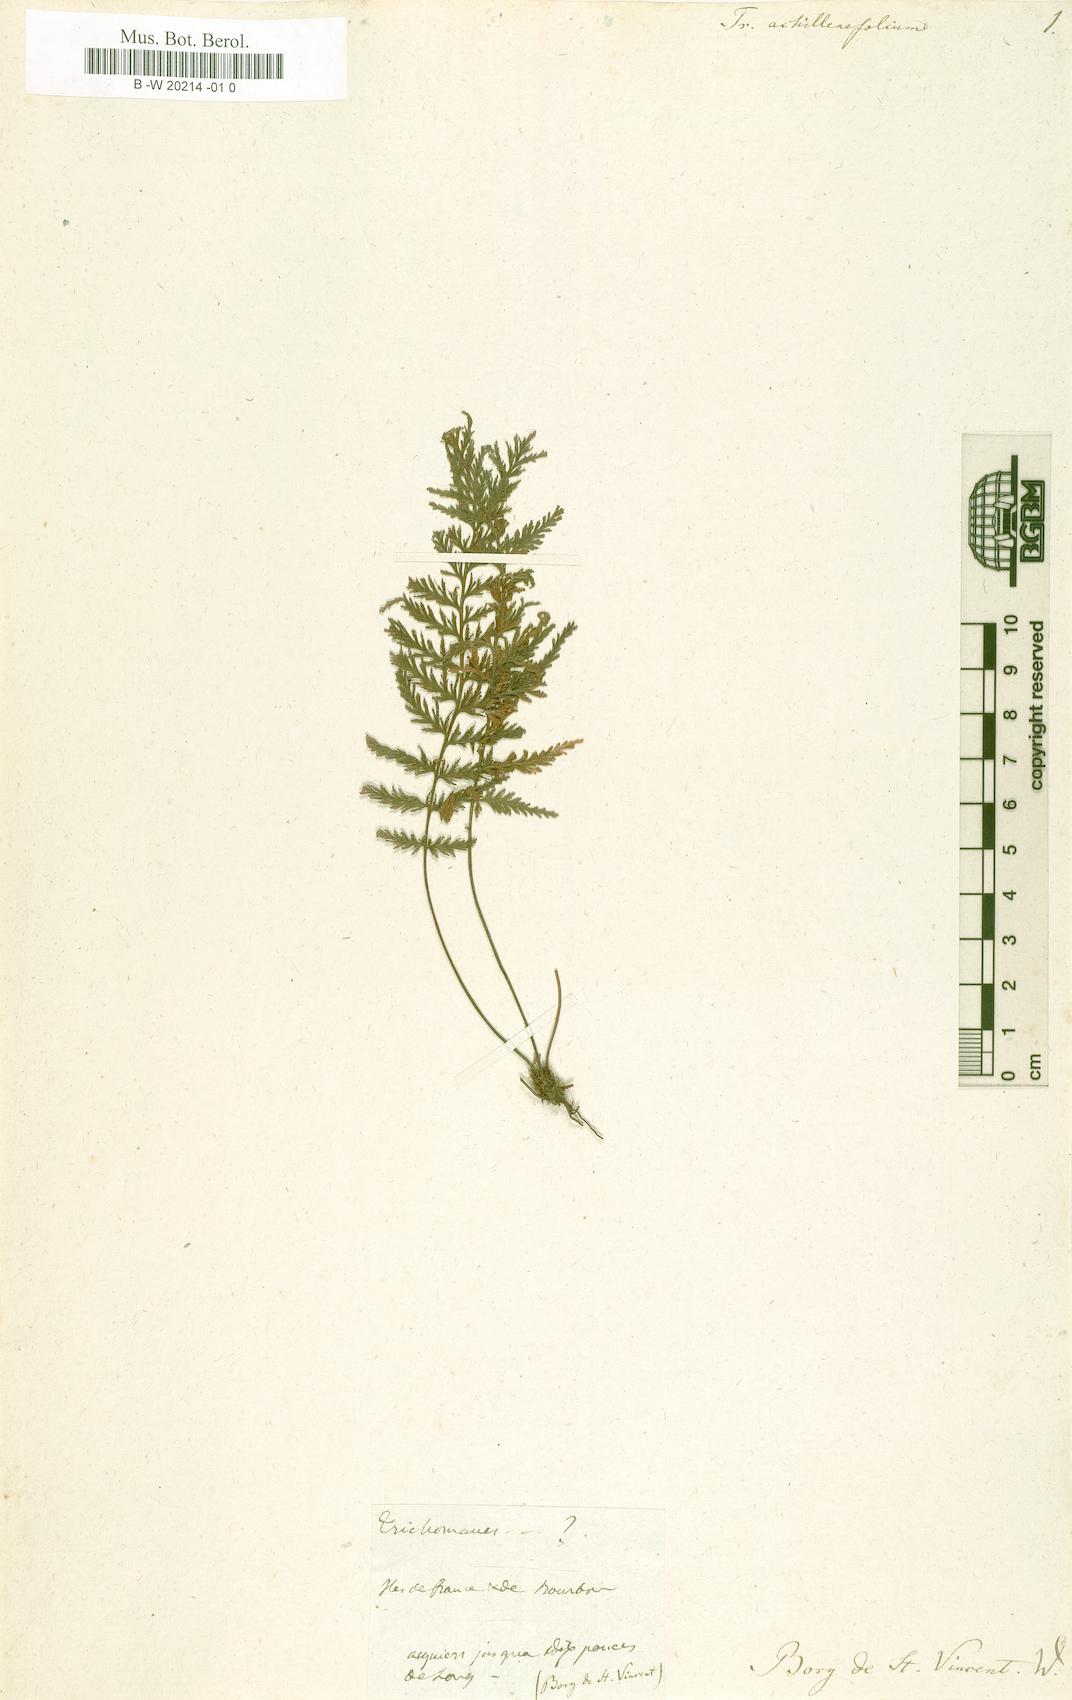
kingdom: Plantae
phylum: Tracheophyta
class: Polypodiopsida
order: Hymenophyllales
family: Hymenophyllaceae
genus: Abrodictyum
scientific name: Abrodictyum tamarisciforme
